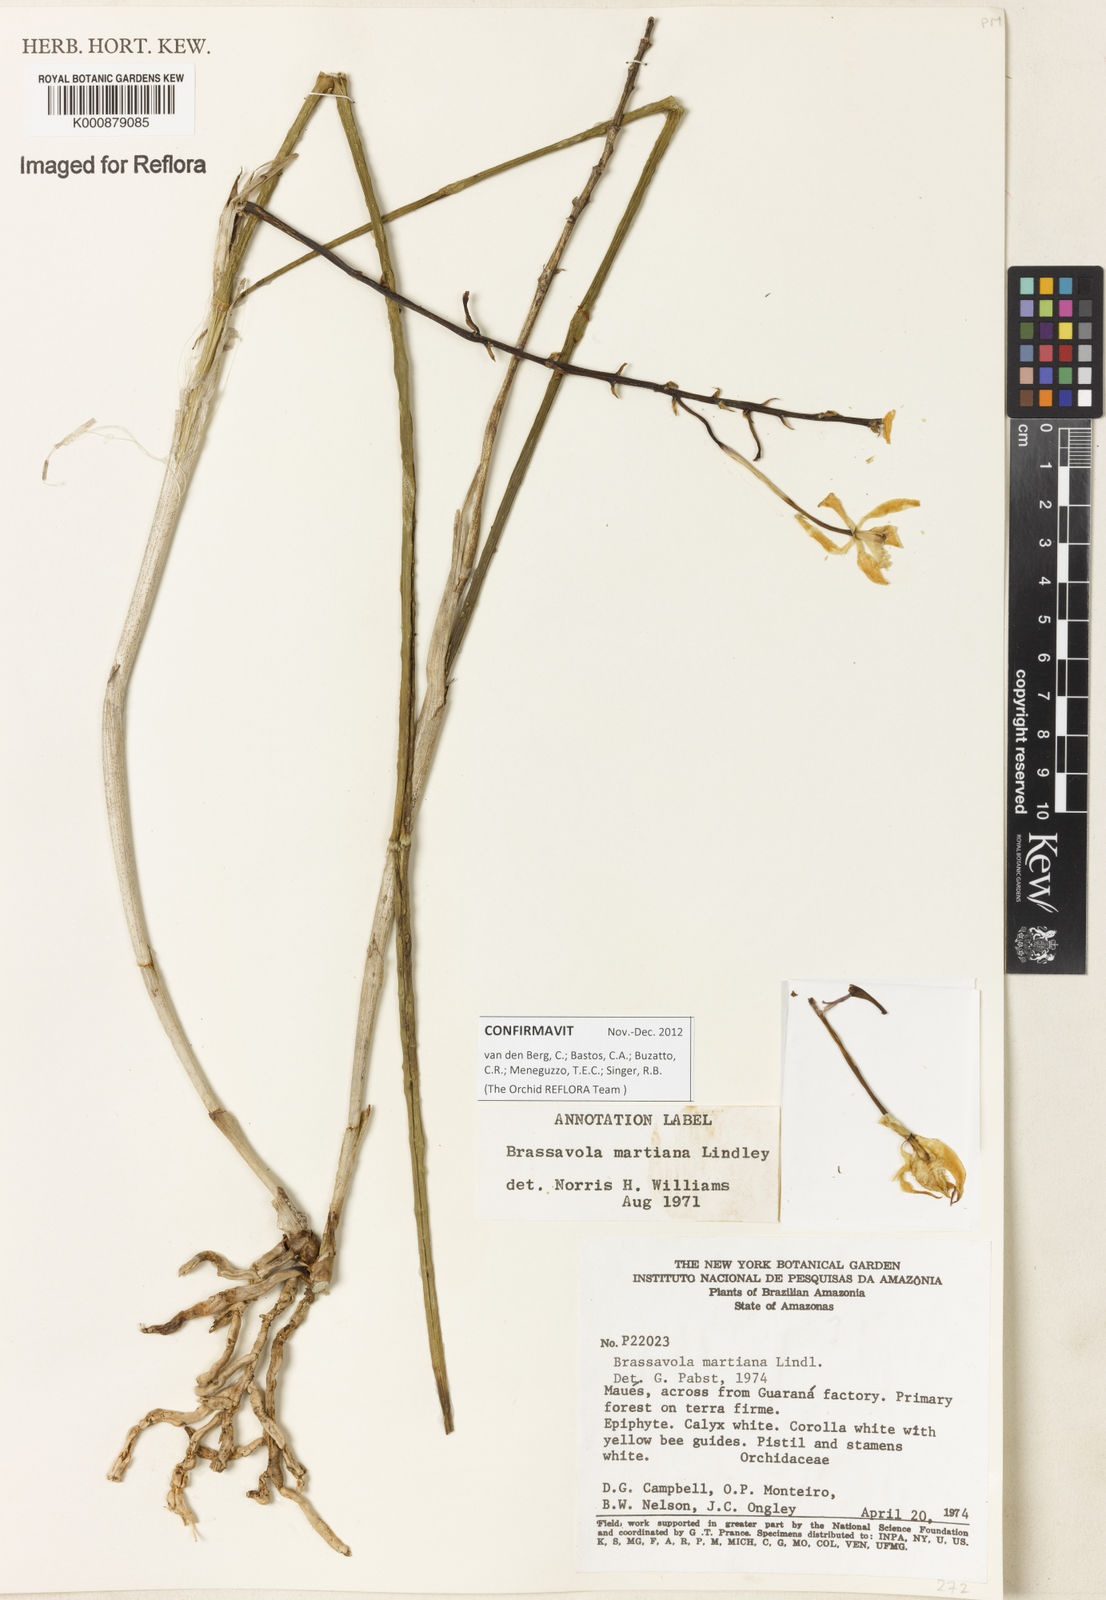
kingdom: Plantae
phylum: Tracheophyta
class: Liliopsida
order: Asparagales
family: Orchidaceae
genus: Brassavola
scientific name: Brassavola martiana
